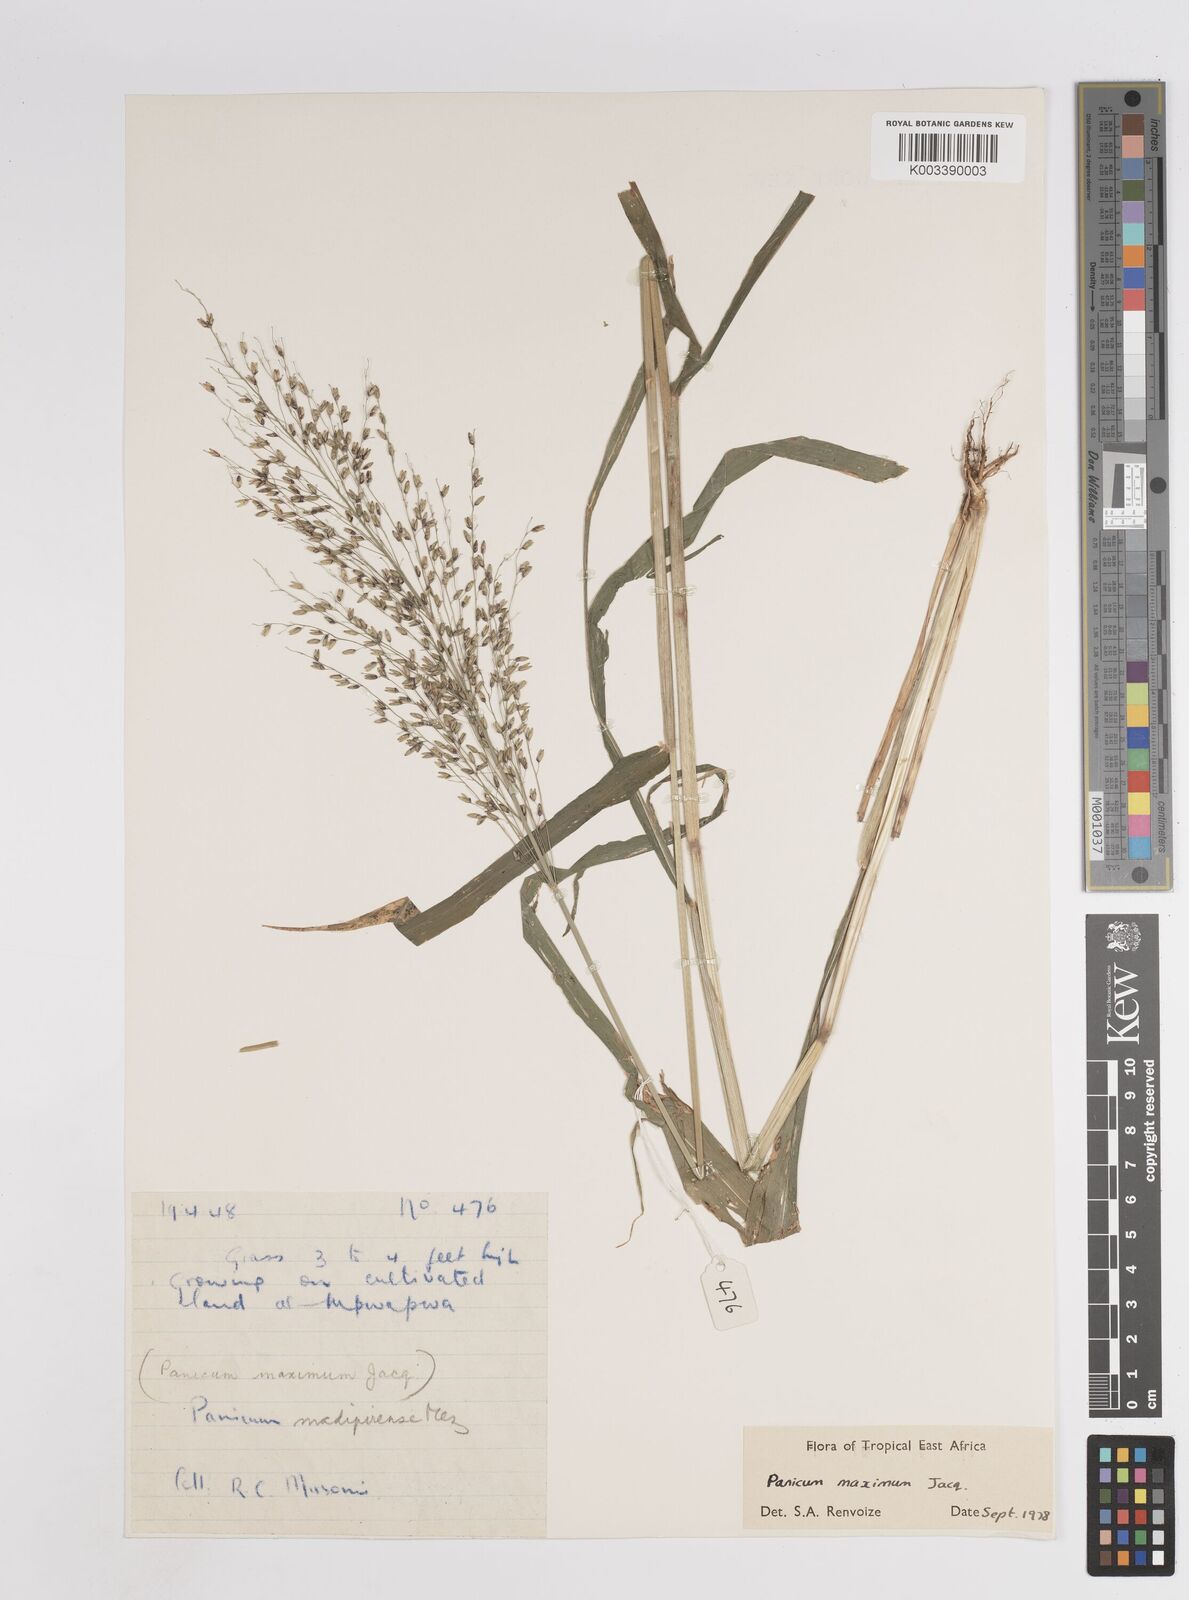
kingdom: Plantae
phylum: Tracheophyta
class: Liliopsida
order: Poales
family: Poaceae
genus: Megathyrsus
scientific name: Megathyrsus maximus
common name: Guineagrass
